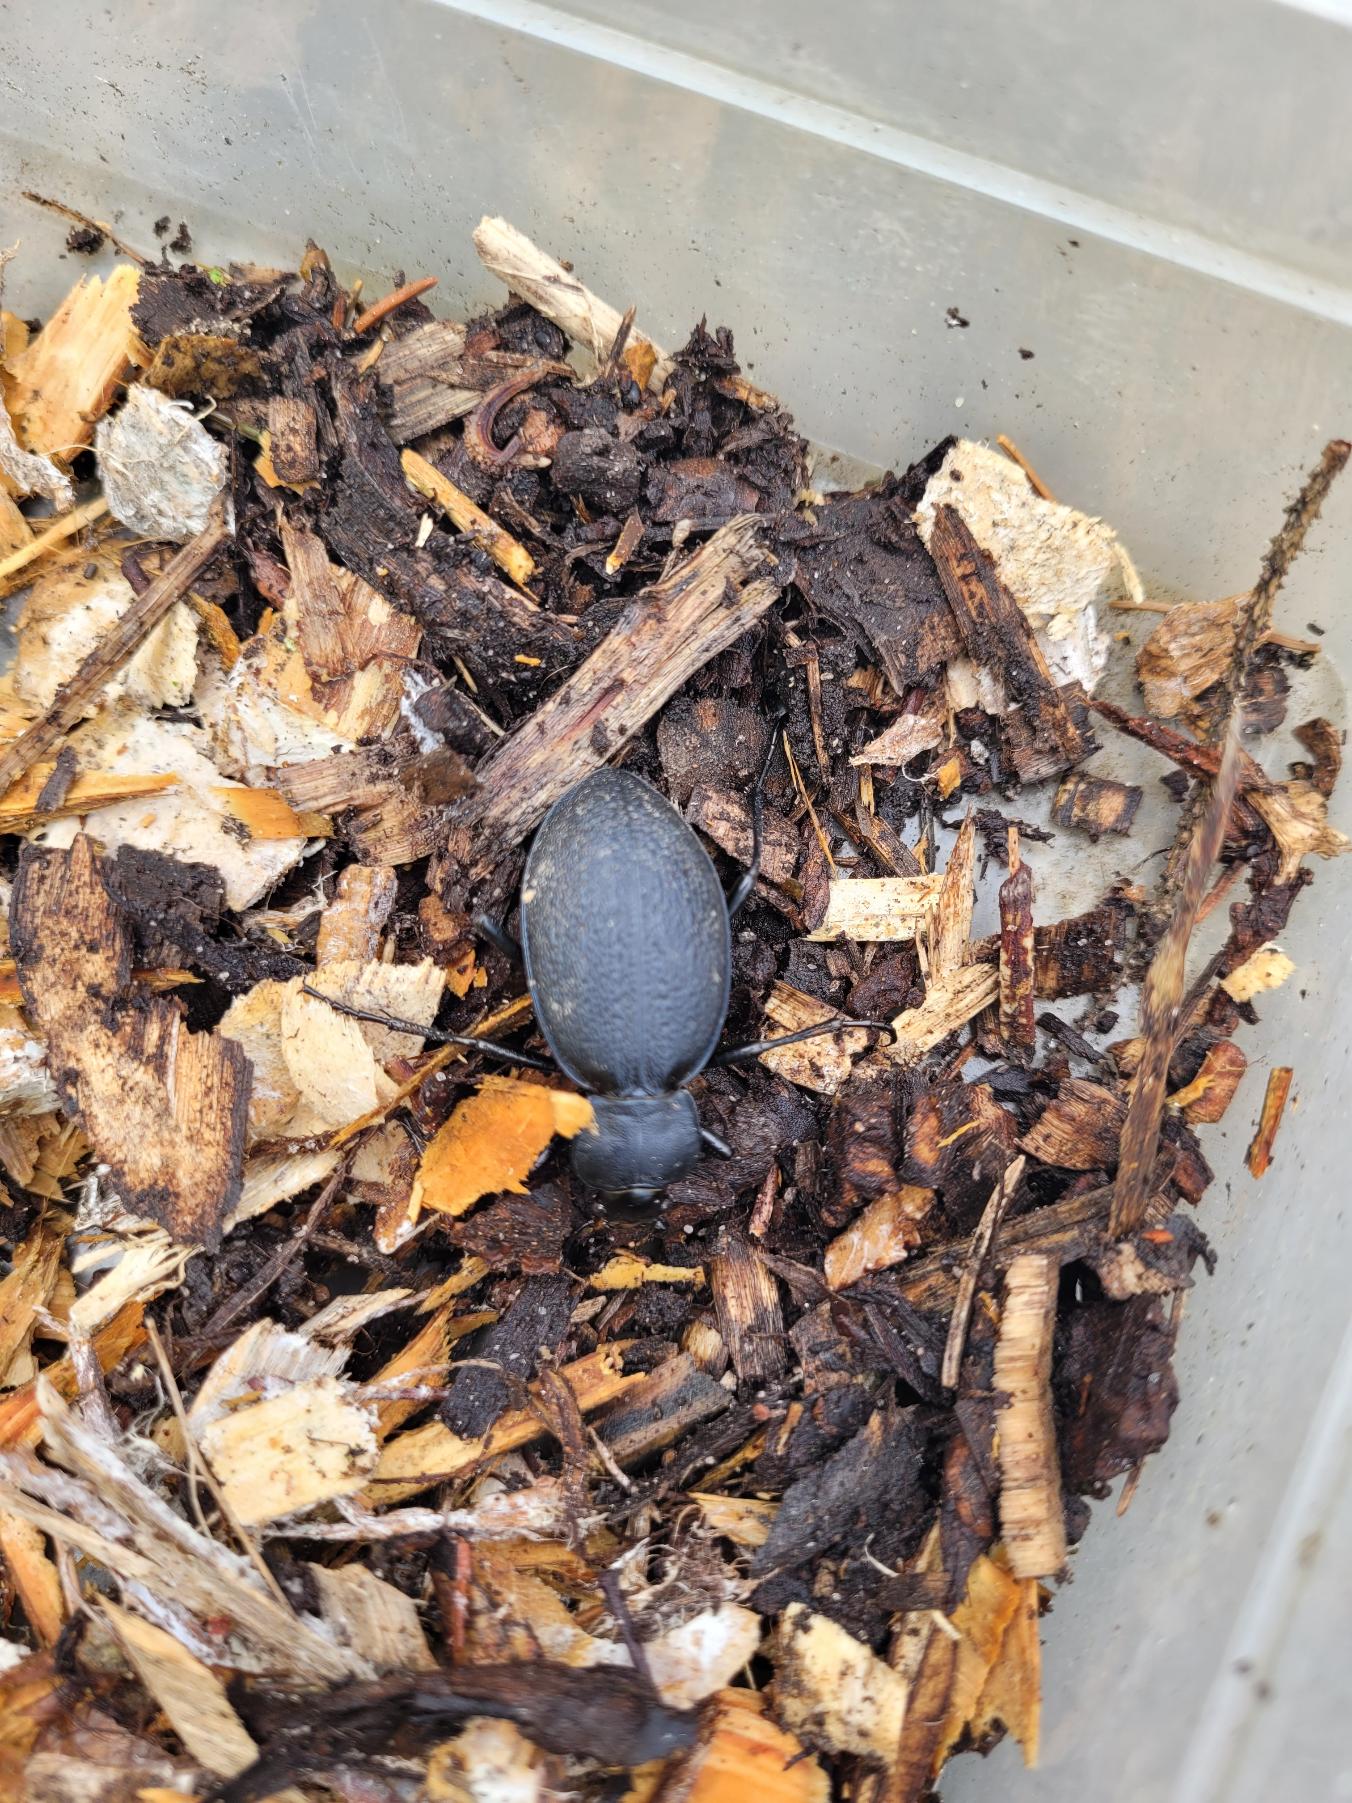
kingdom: Animalia
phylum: Arthropoda
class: Insecta
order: Coleoptera
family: Carabidae
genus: Carabus
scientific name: Carabus coriaceus
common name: Læderløber
